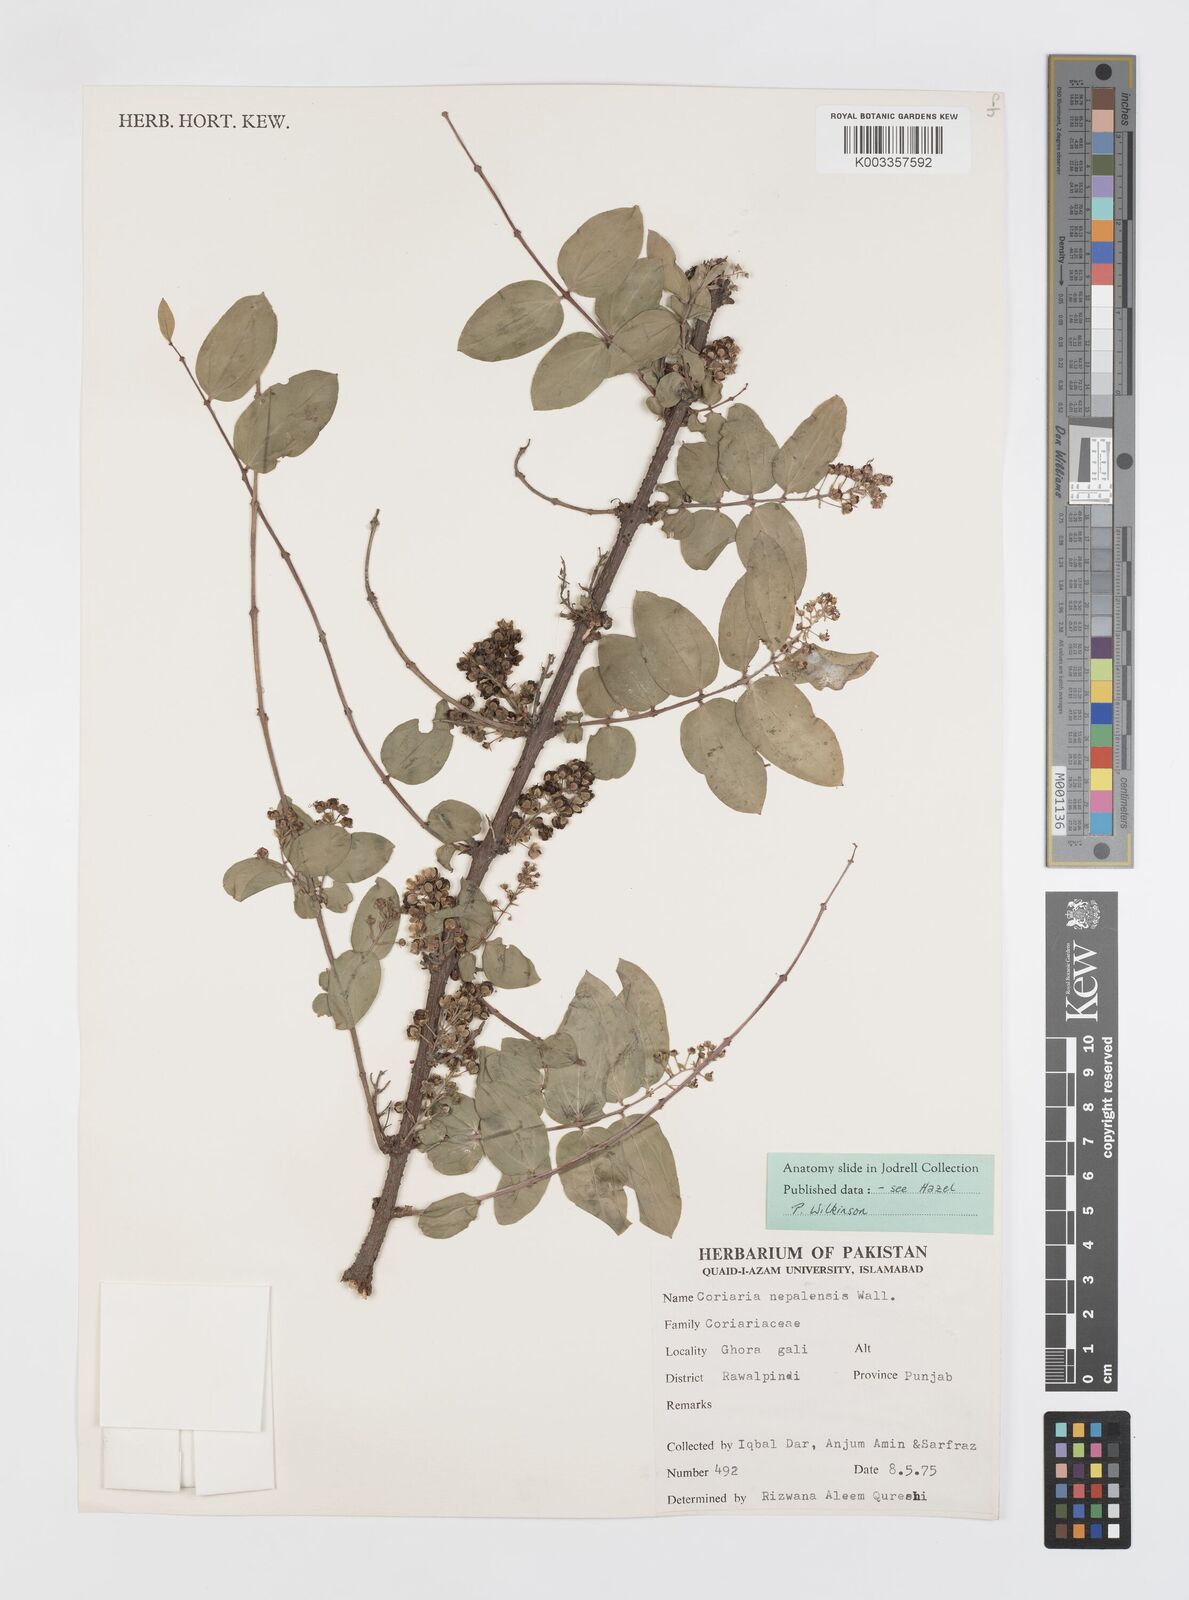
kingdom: Plantae
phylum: Tracheophyta
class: Magnoliopsida
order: Cucurbitales
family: Coriariaceae
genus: Coriaria
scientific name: Coriaria napalensis
